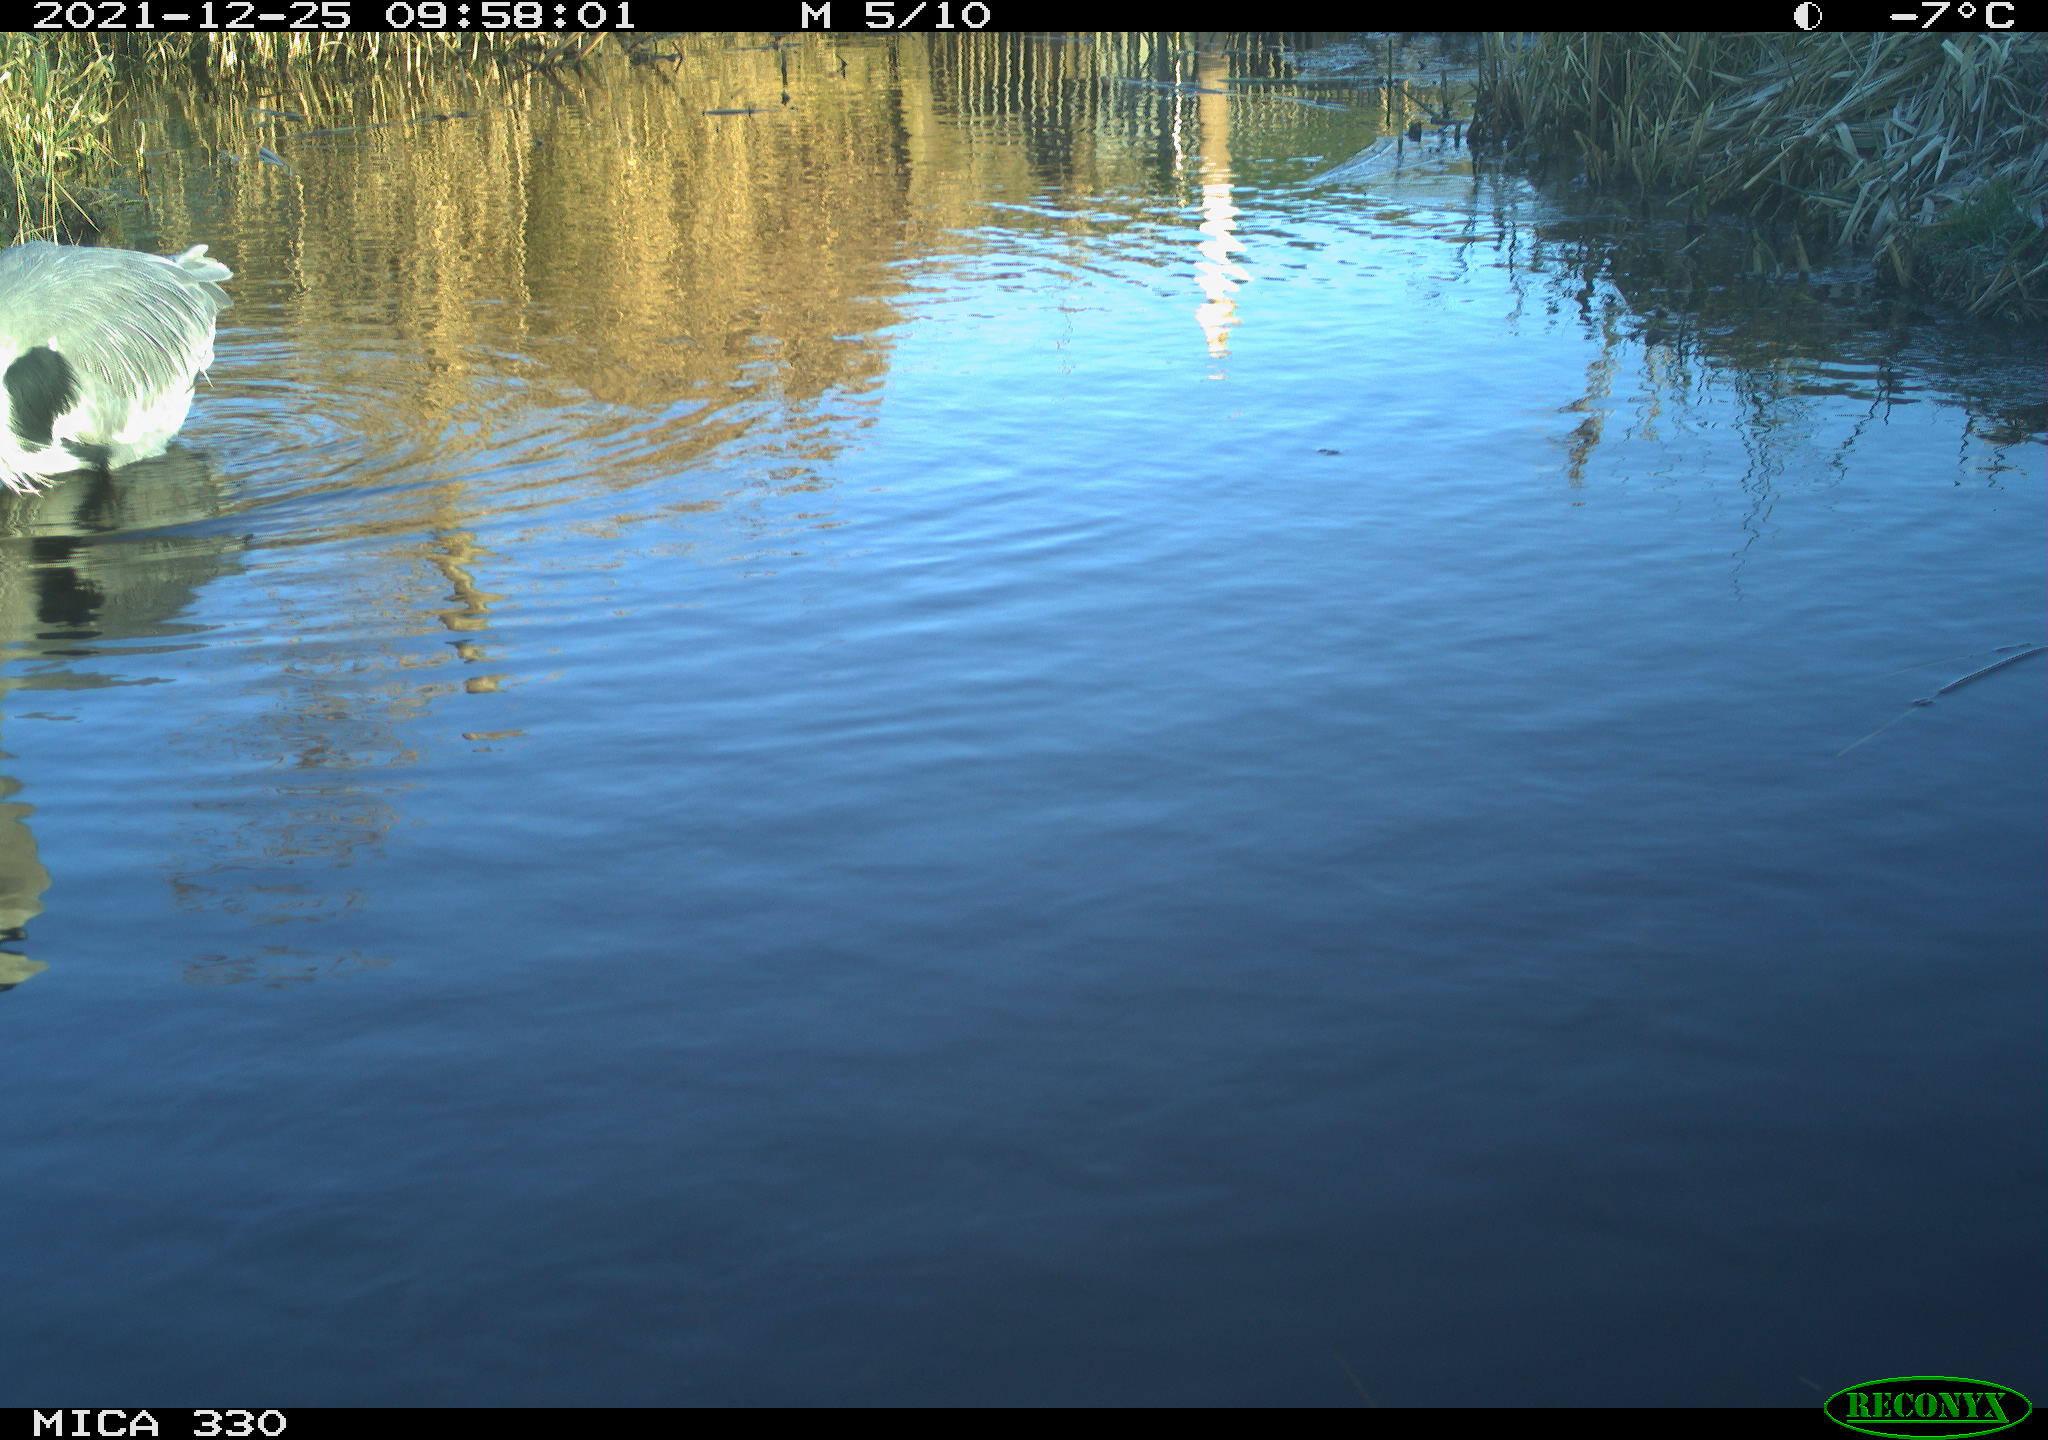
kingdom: Animalia
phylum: Chordata
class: Aves
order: Pelecaniformes
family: Ardeidae
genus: Ardea
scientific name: Ardea cinerea
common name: Grey heron
